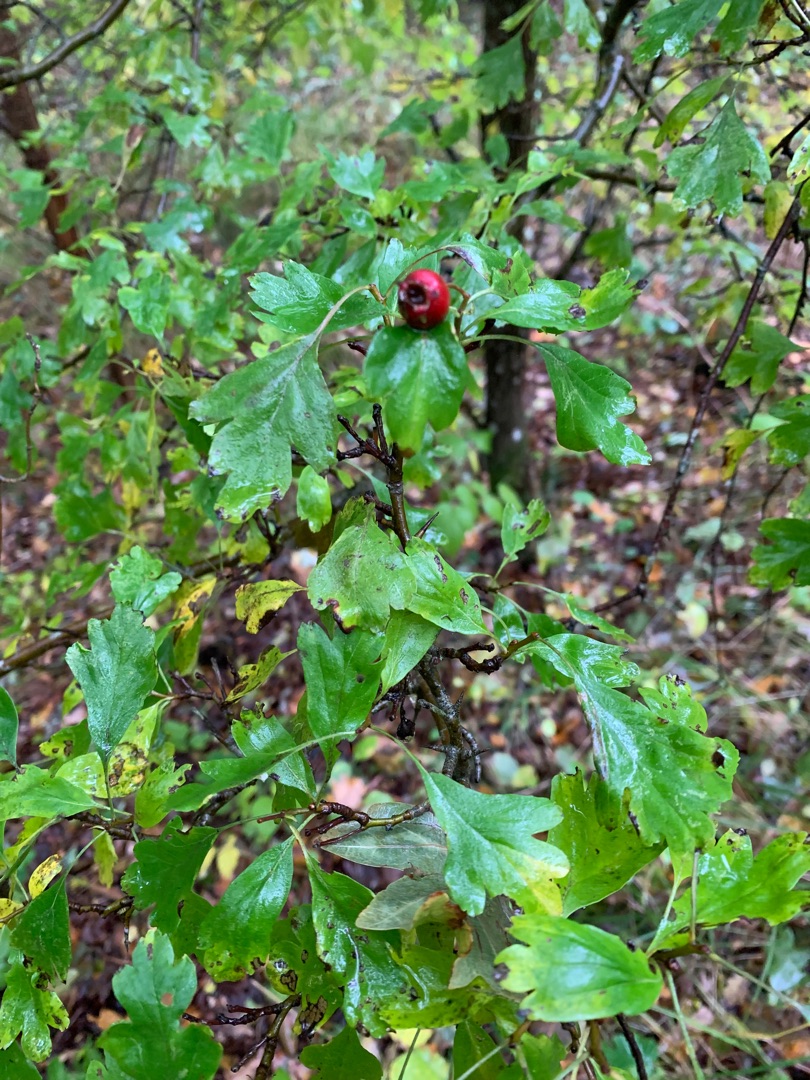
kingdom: Plantae
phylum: Tracheophyta
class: Magnoliopsida
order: Rosales
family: Rosaceae
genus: Crataegus
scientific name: Crataegus monogyna
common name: Engriflet hvidtjørn
